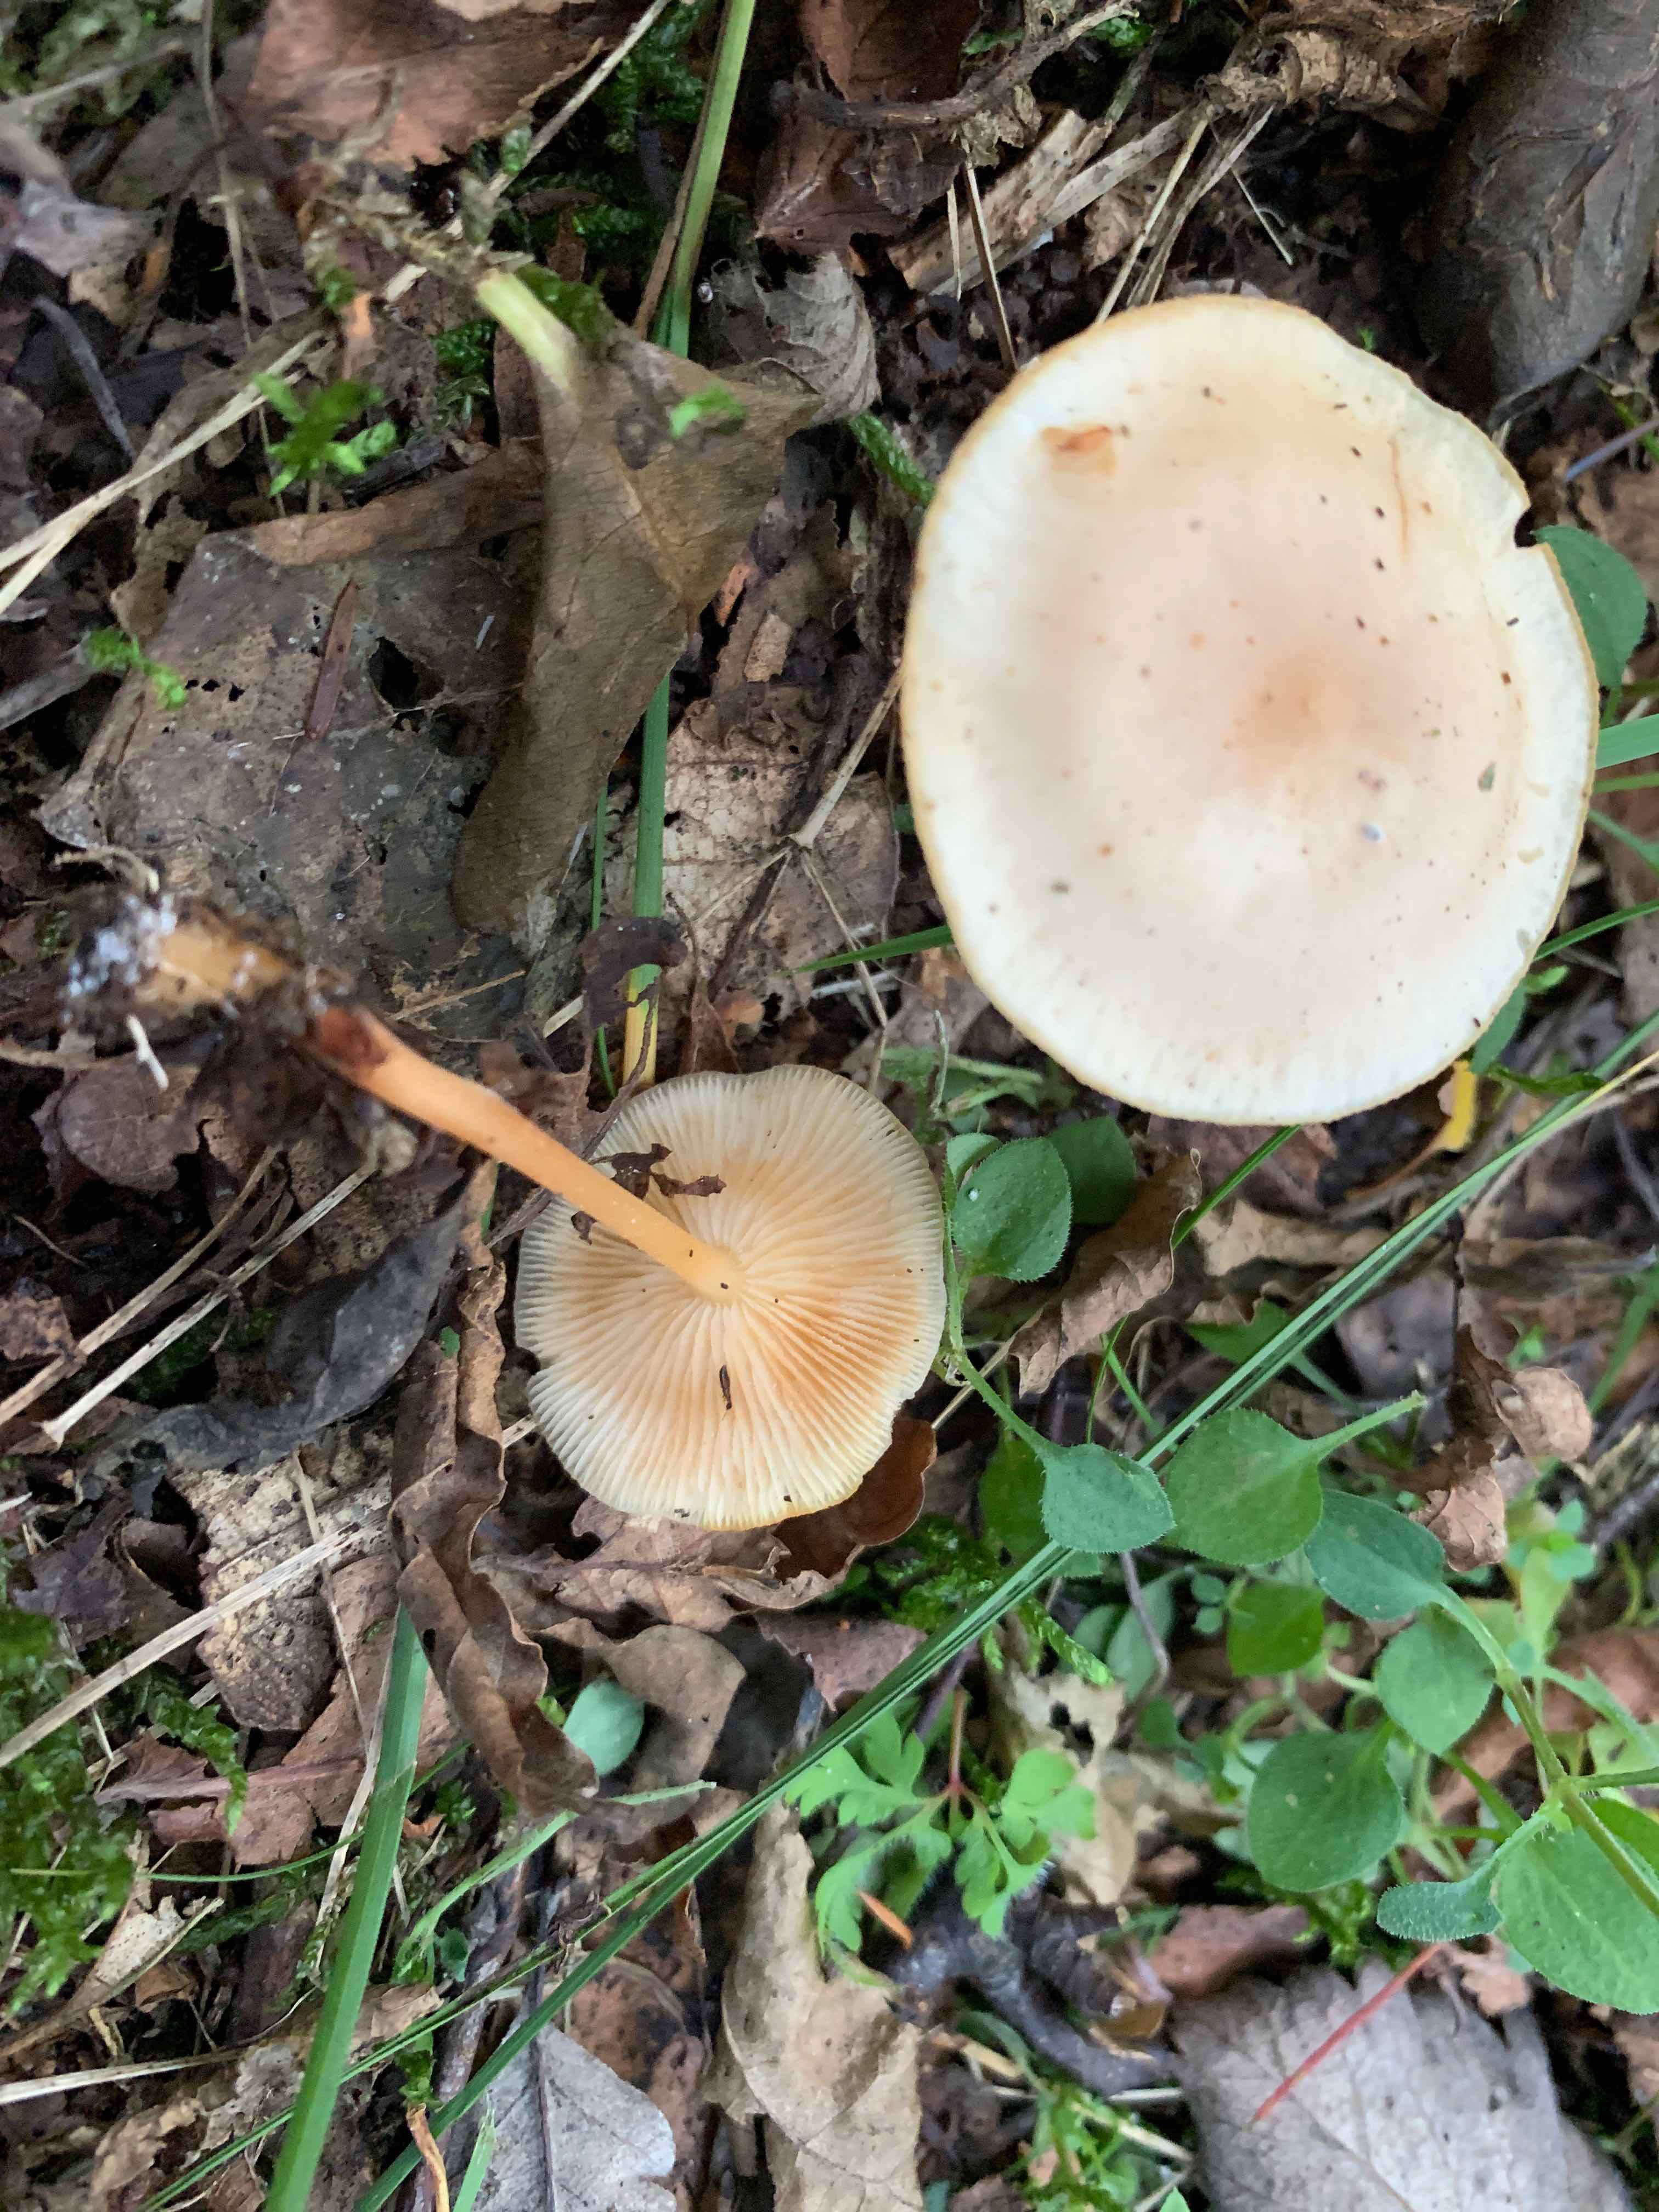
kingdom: Fungi
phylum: Basidiomycota
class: Agaricomycetes
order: Agaricales
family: Omphalotaceae
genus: Gymnopus
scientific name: Gymnopus dryophilus
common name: løv-fladhat
